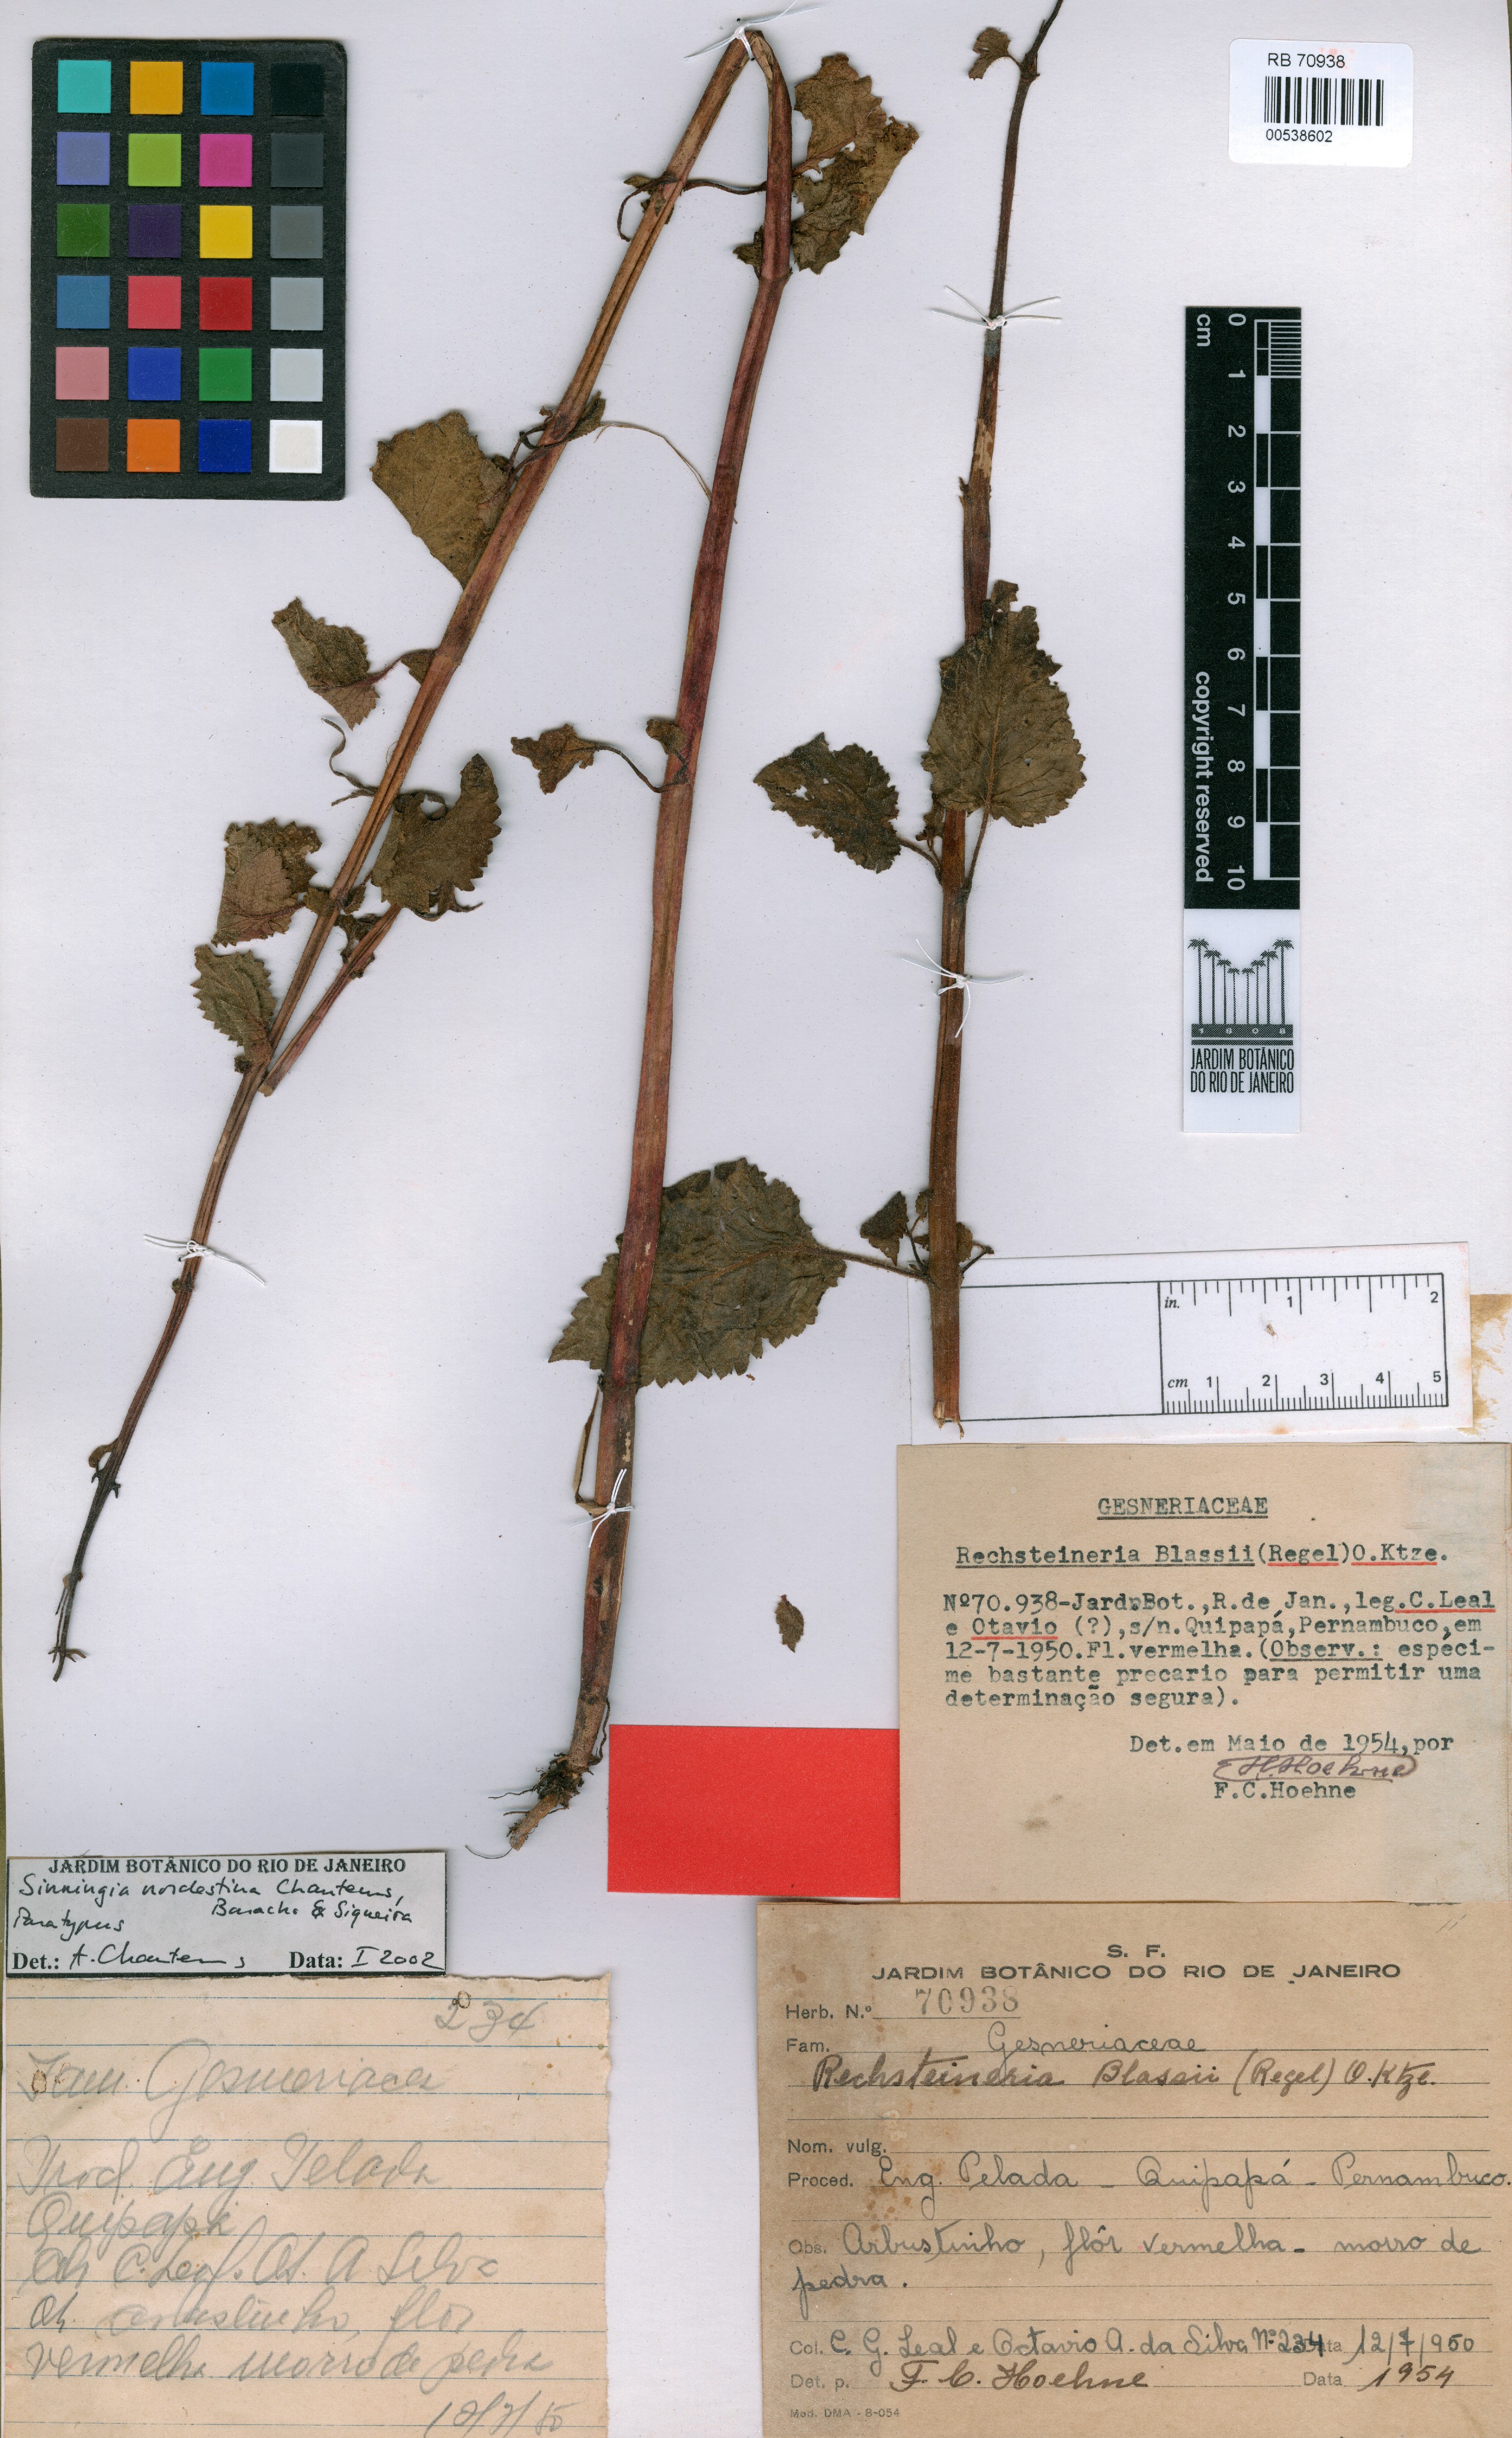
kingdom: Plantae
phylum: Tracheophyta
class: Magnoliopsida
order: Lamiales
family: Gesneriaceae
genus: Sinningia
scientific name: Sinningia nordestina
